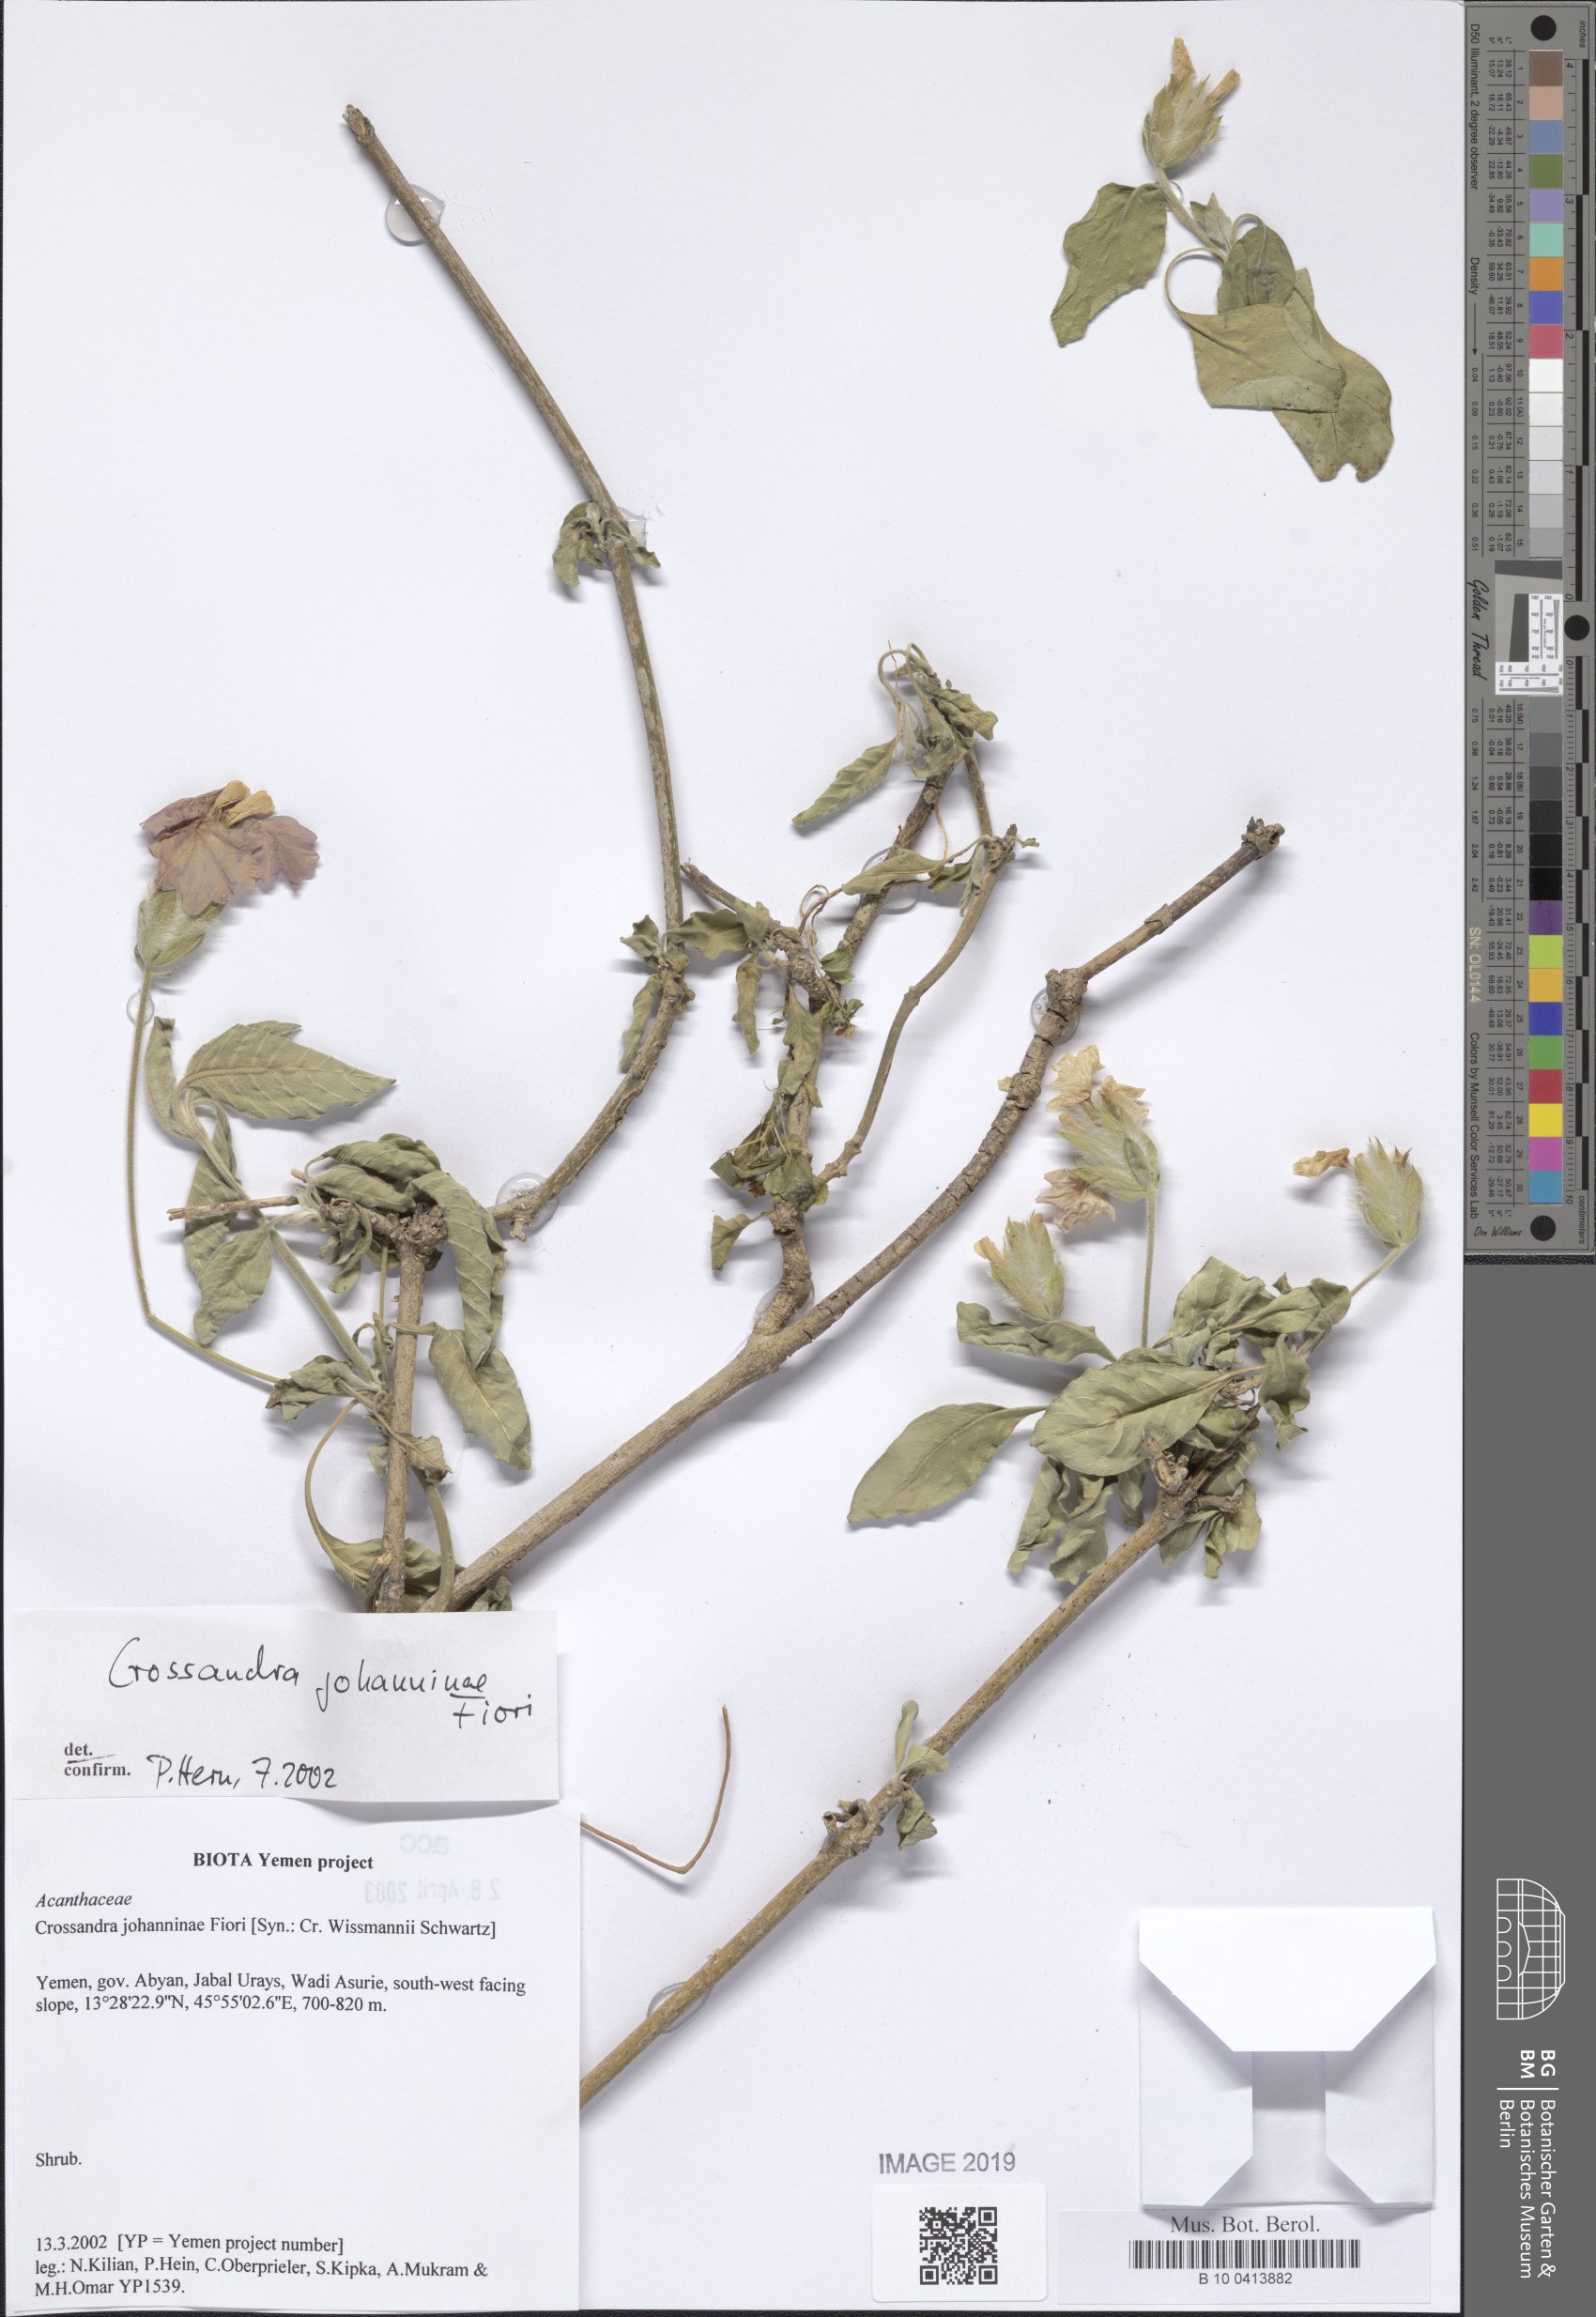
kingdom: Plantae
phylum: Tracheophyta
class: Magnoliopsida
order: Lamiales
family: Acanthaceae
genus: Crossandra
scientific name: Crossandra johanninae
